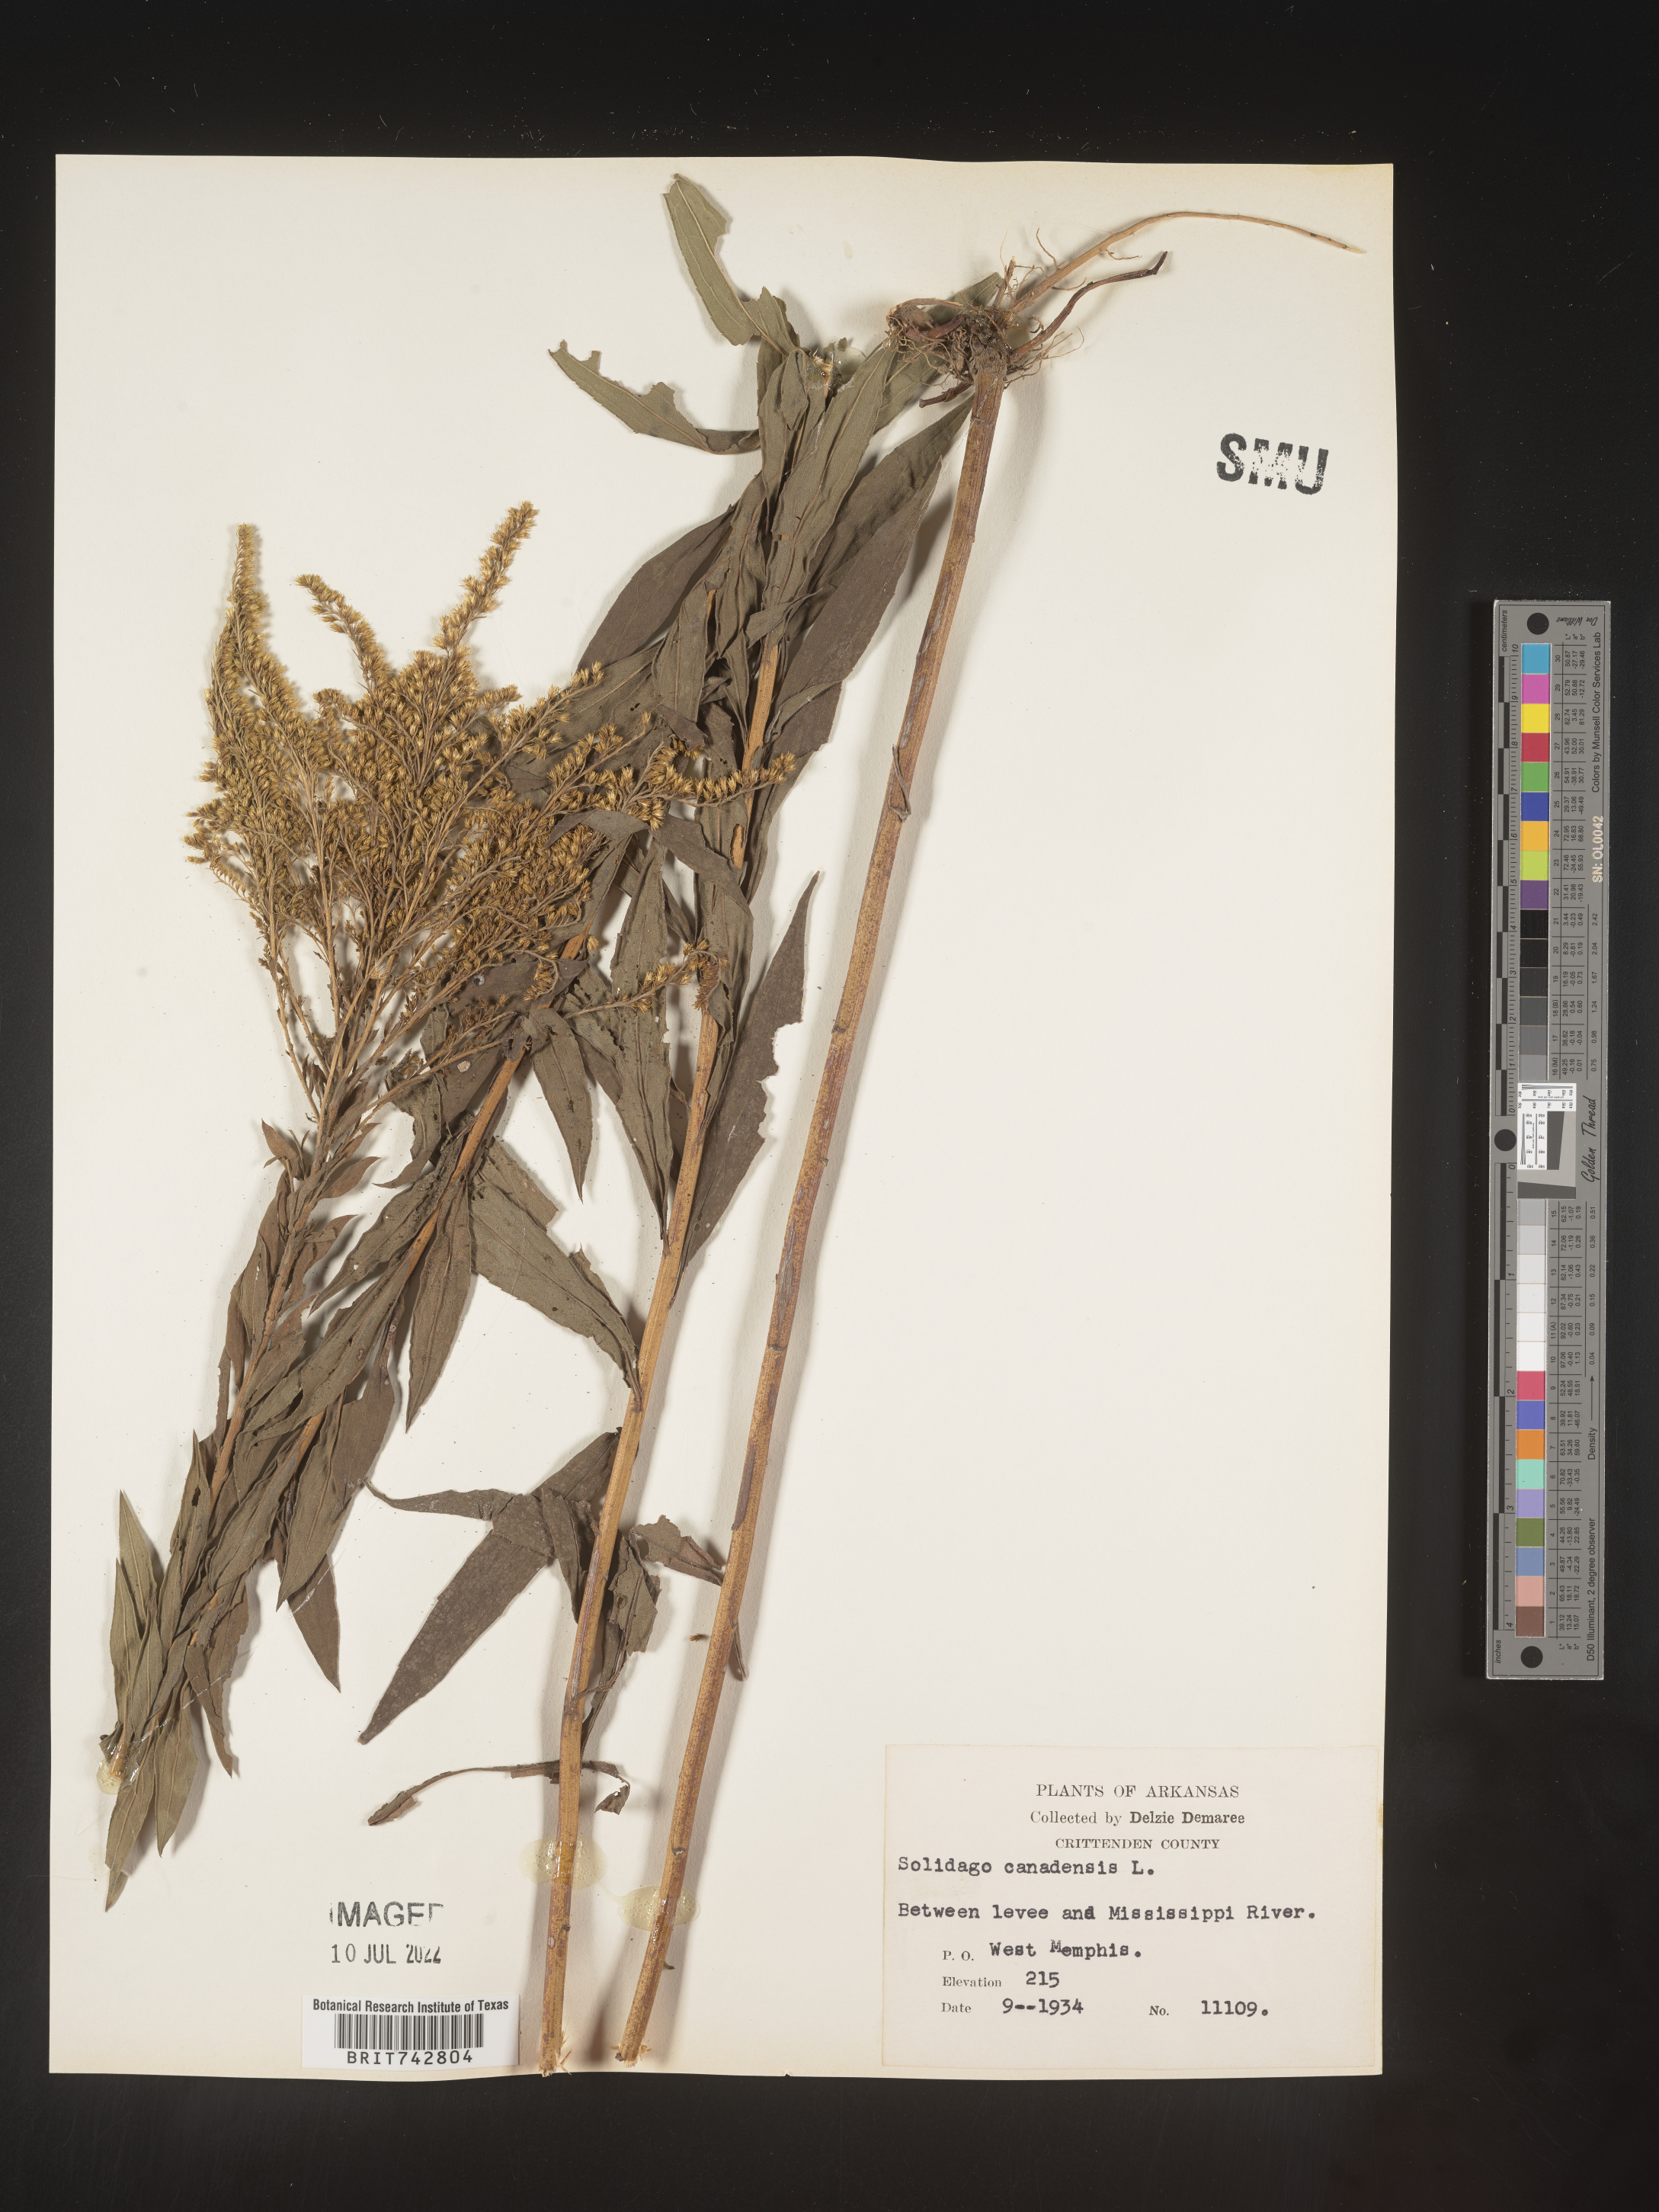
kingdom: Plantae
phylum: Tracheophyta
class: Magnoliopsida
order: Asterales
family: Asteraceae
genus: Solidago
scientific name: Solidago altissima
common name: Late goldenrod
